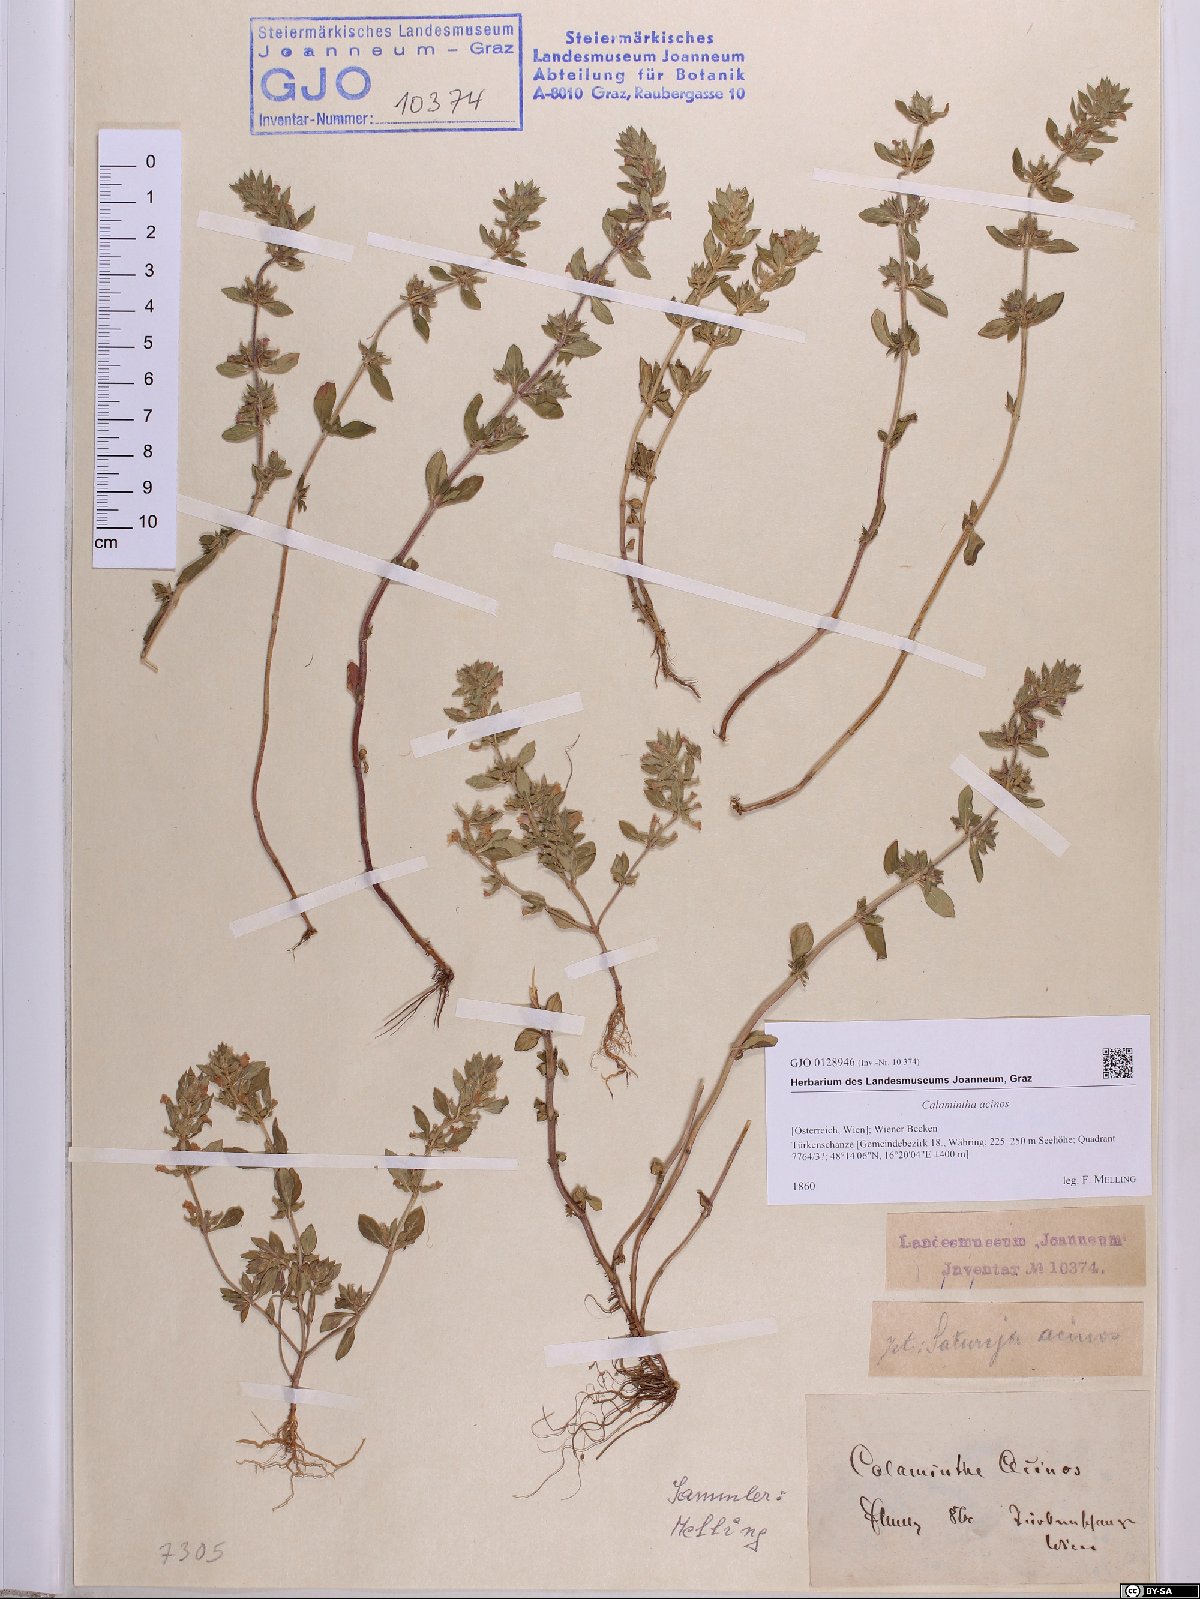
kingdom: Plantae
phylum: Tracheophyta
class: Magnoliopsida
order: Lamiales
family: Lamiaceae
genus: Clinopodium
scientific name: Clinopodium acinos
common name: Basil thyme
